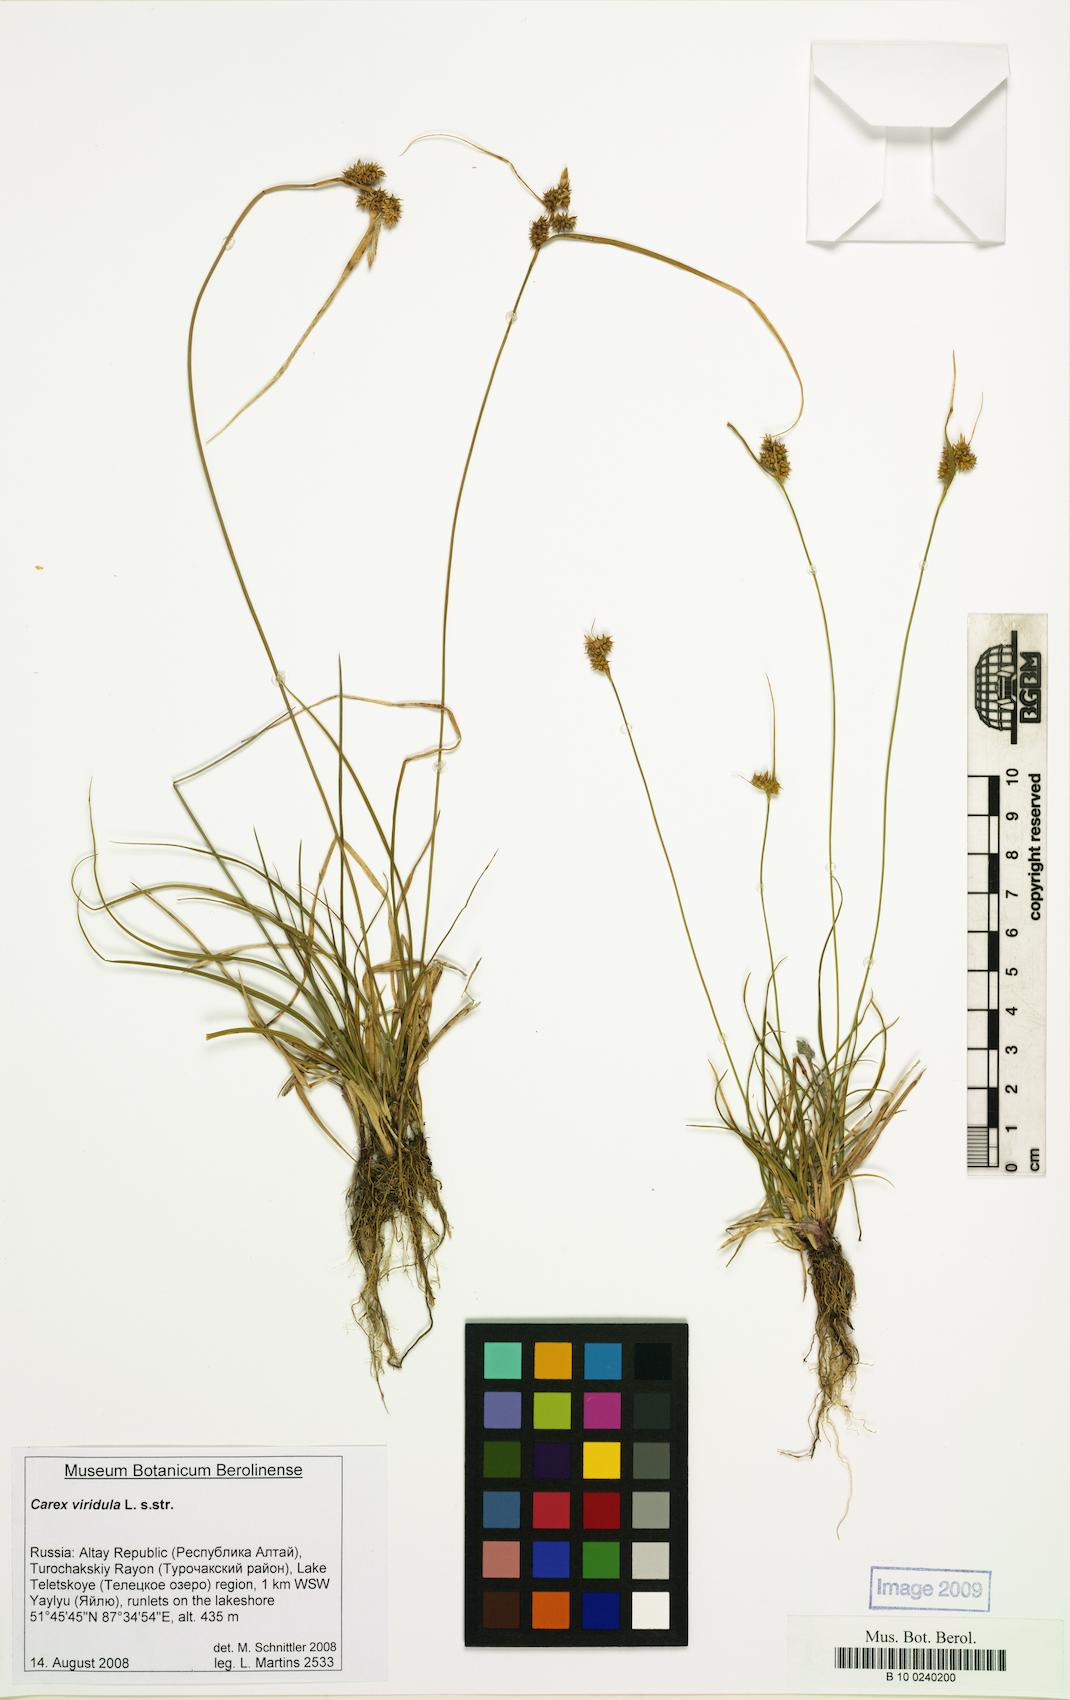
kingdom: Plantae
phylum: Tracheophyta
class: Liliopsida
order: Poales
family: Cyperaceae
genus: Carex
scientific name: Carex oederi
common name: Common & small-fruited yellow-sedge
